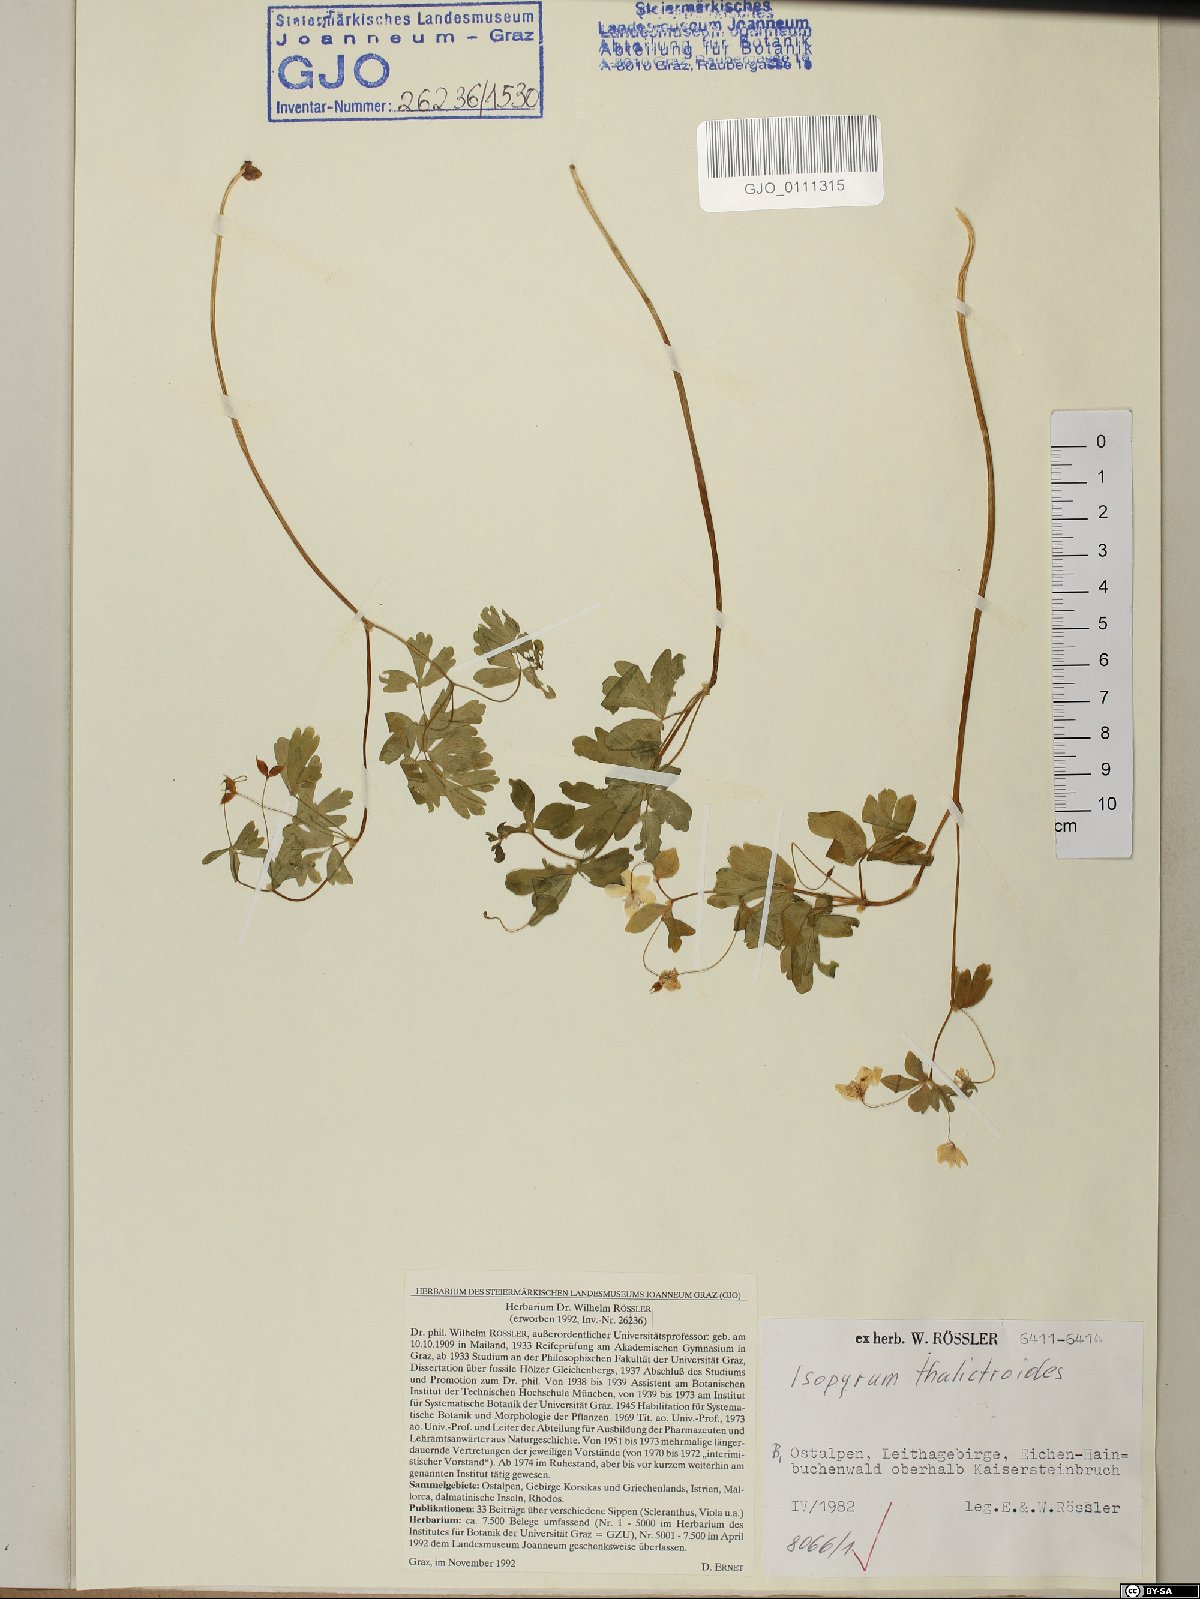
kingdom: Plantae
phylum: Tracheophyta
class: Magnoliopsida
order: Ranunculales
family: Ranunculaceae
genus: Isopyrum
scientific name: Isopyrum thalictroides
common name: Isopyrum
